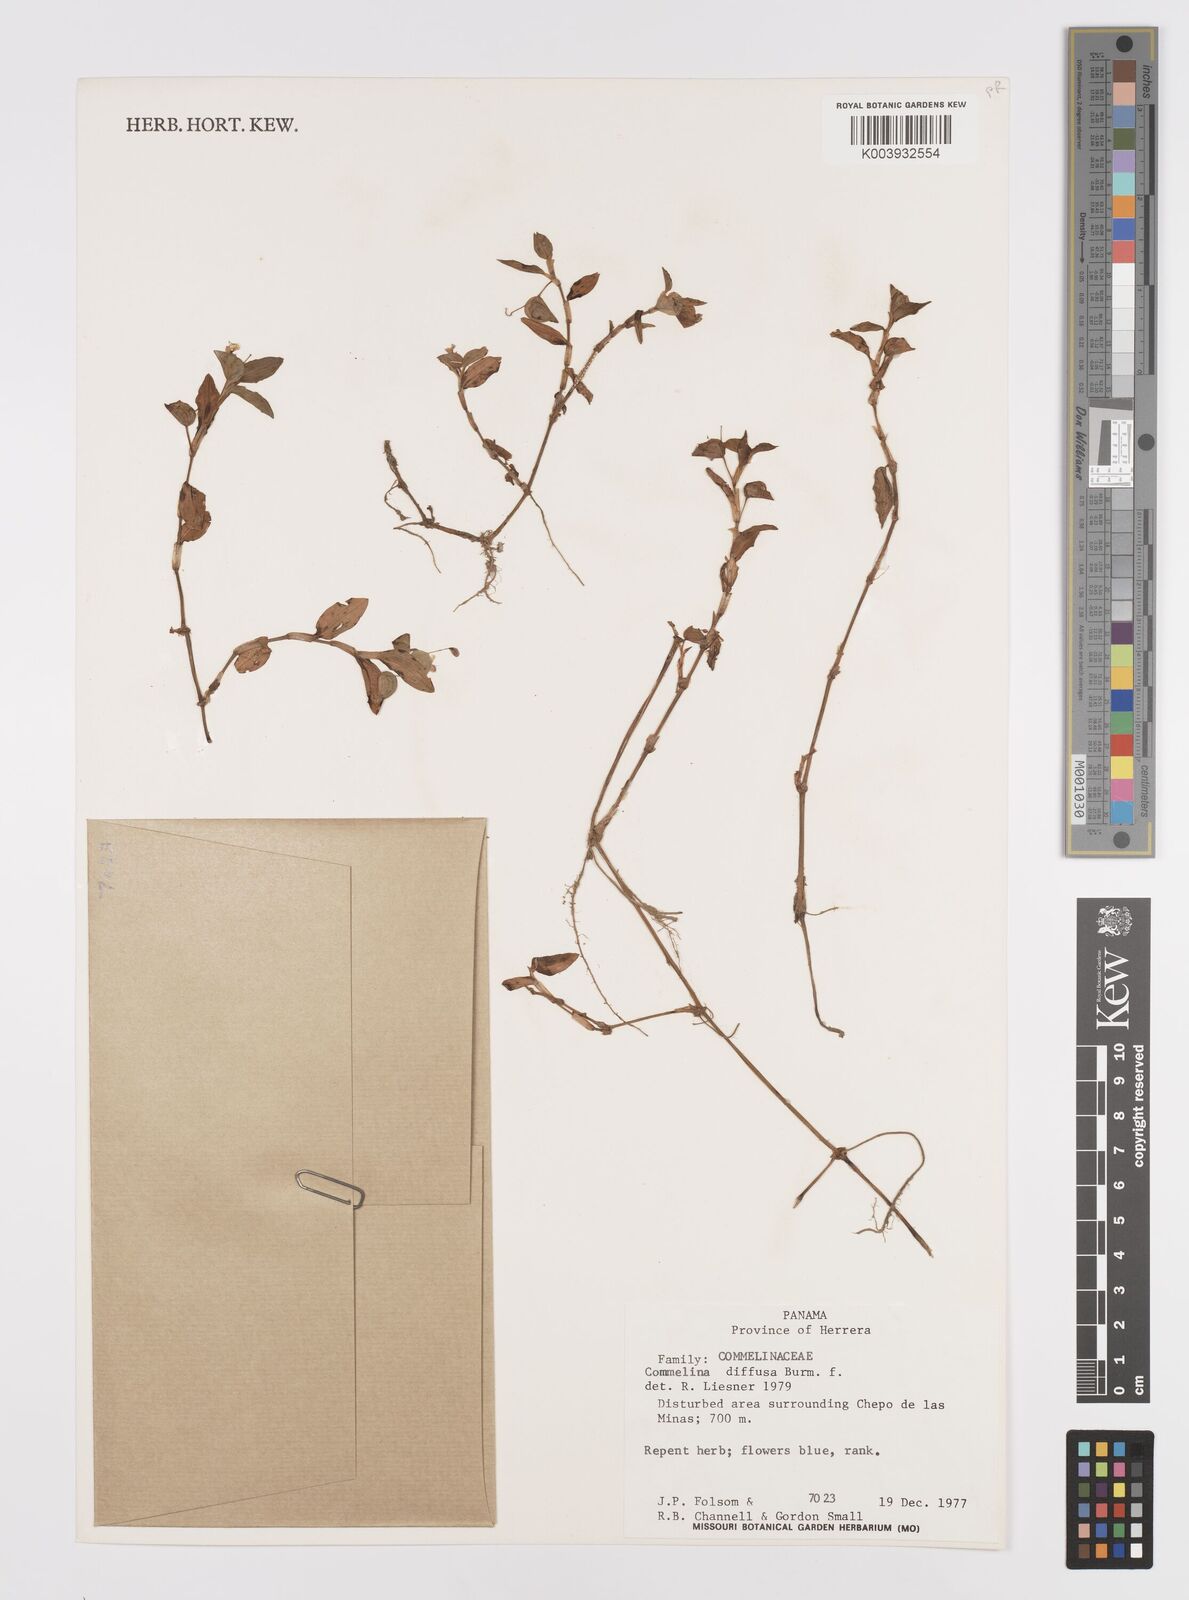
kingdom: Plantae
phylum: Tracheophyta
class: Liliopsida
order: Commelinales
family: Commelinaceae
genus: Commelina
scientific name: Commelina diffusa
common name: Climbing dayflower
